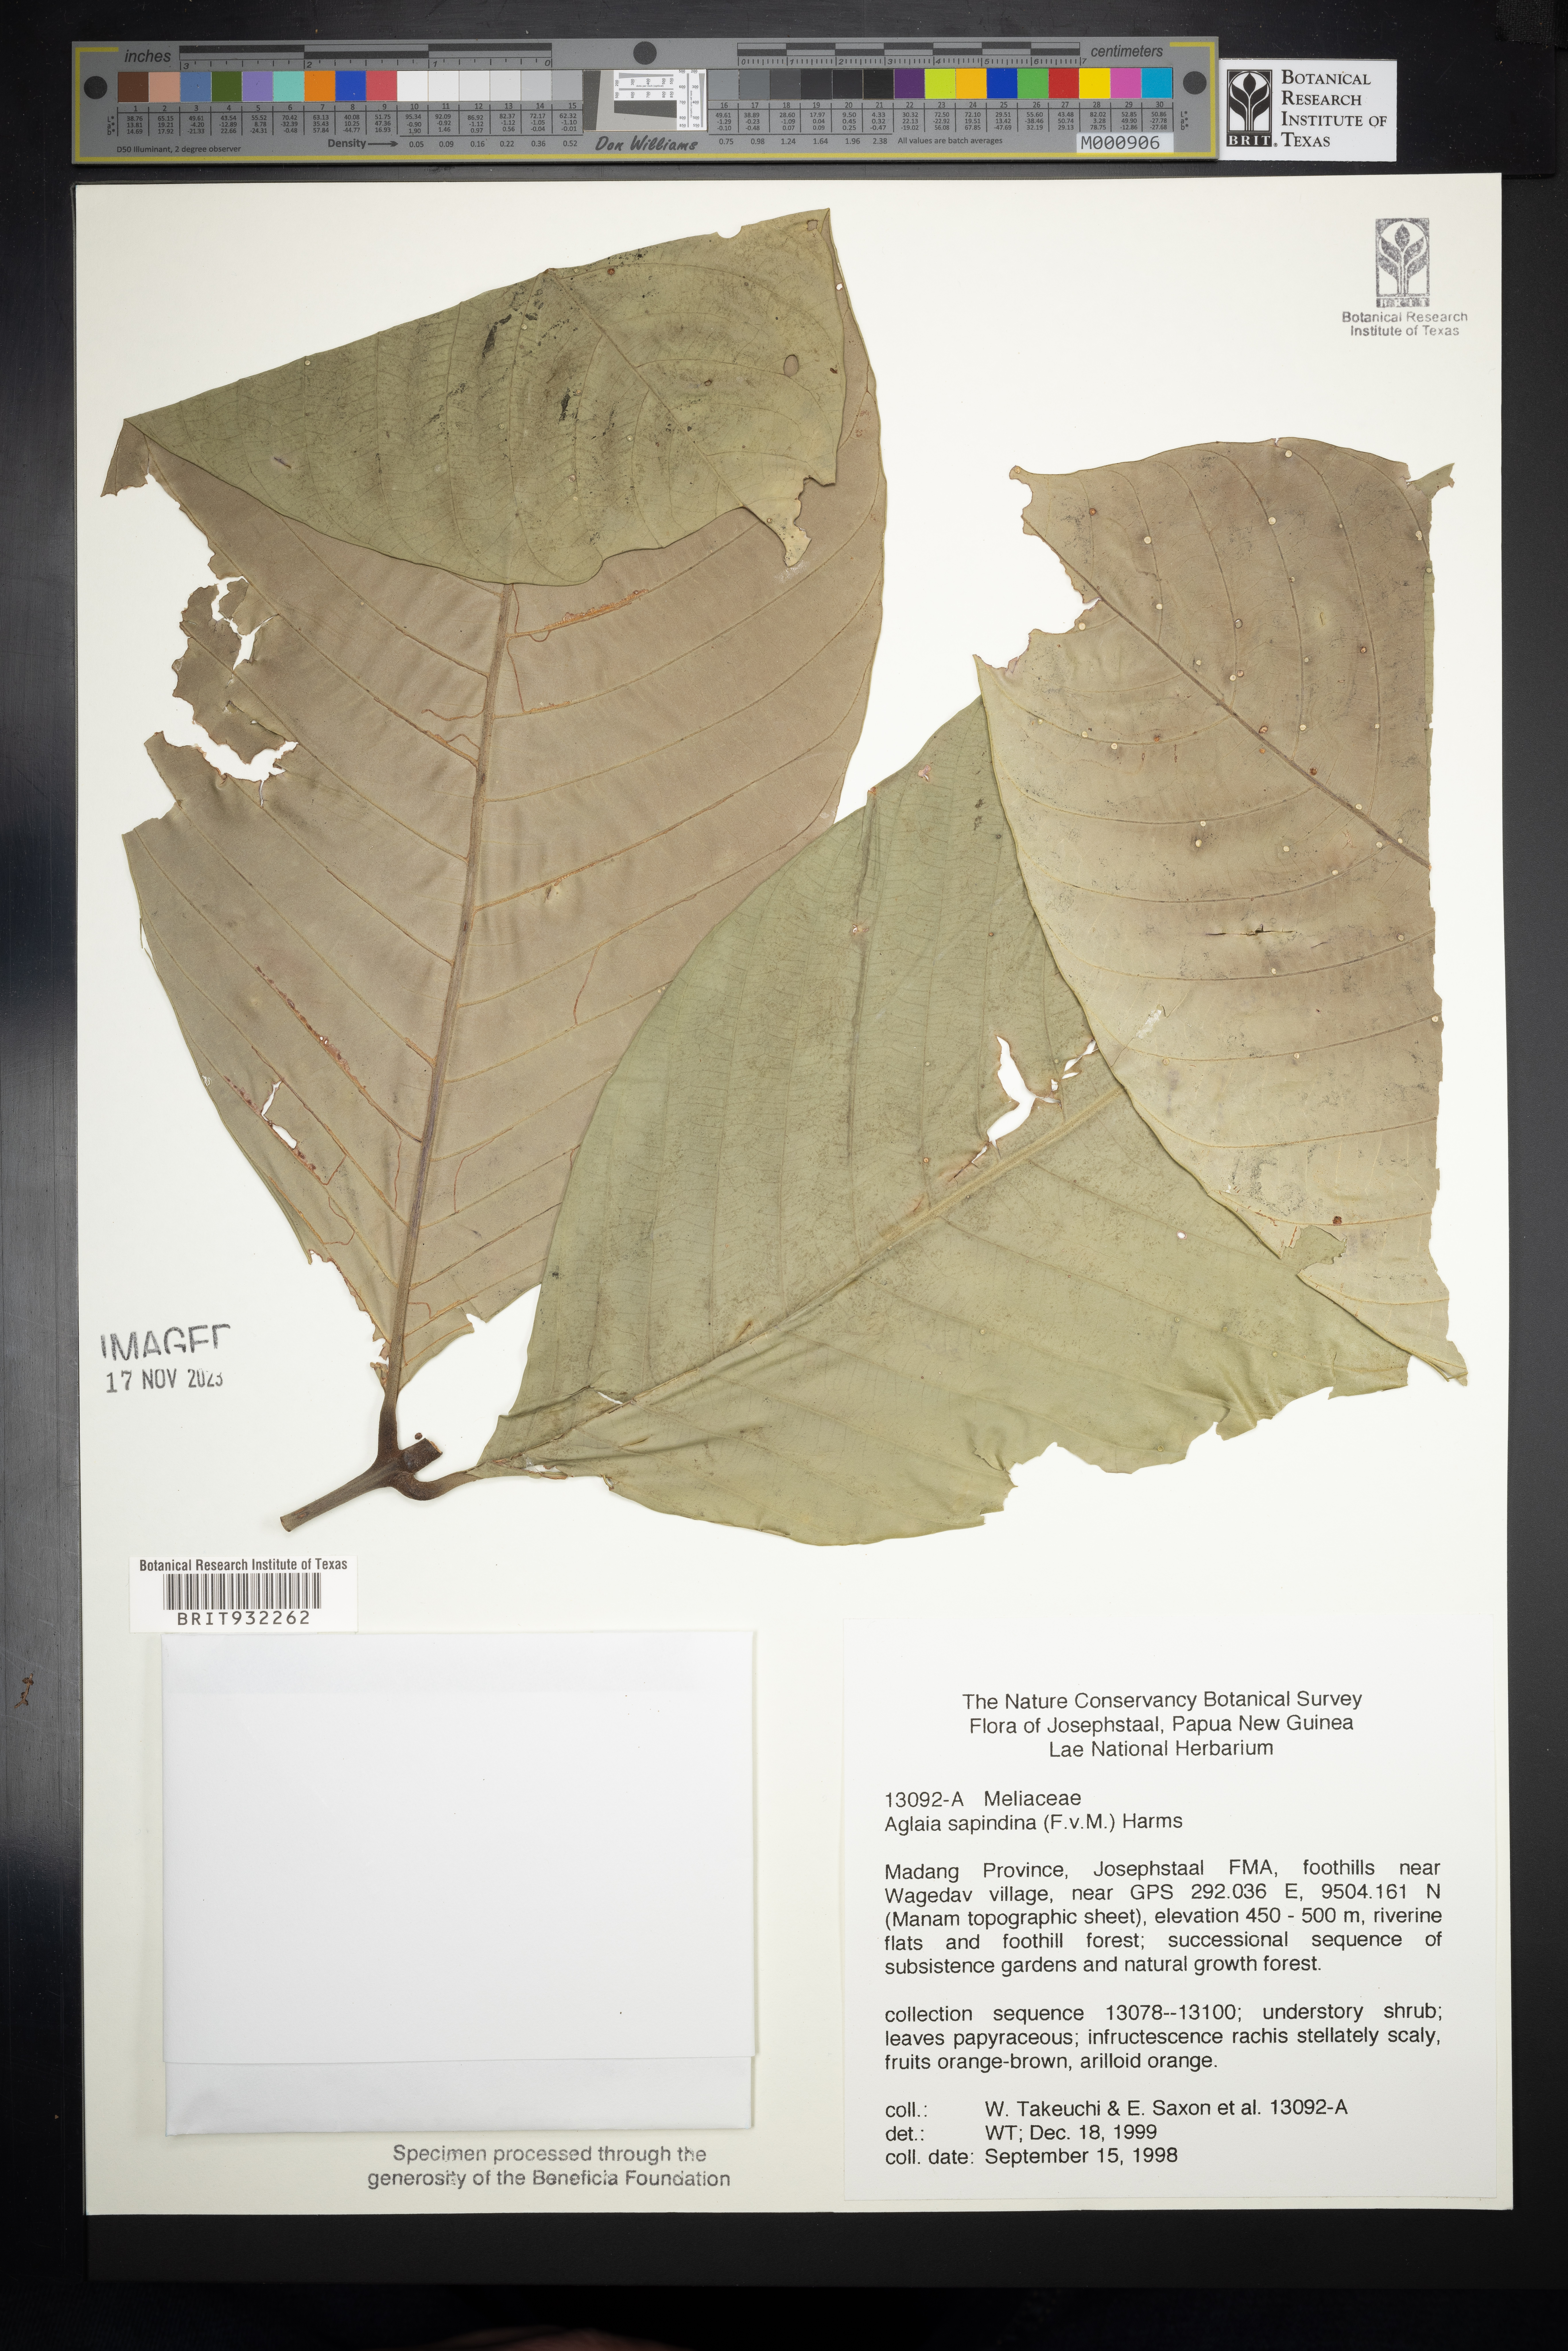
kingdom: Plantae
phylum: Tracheophyta
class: Magnoliopsida
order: Sapindales
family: Meliaceae
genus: Aglaia
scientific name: Aglaia
